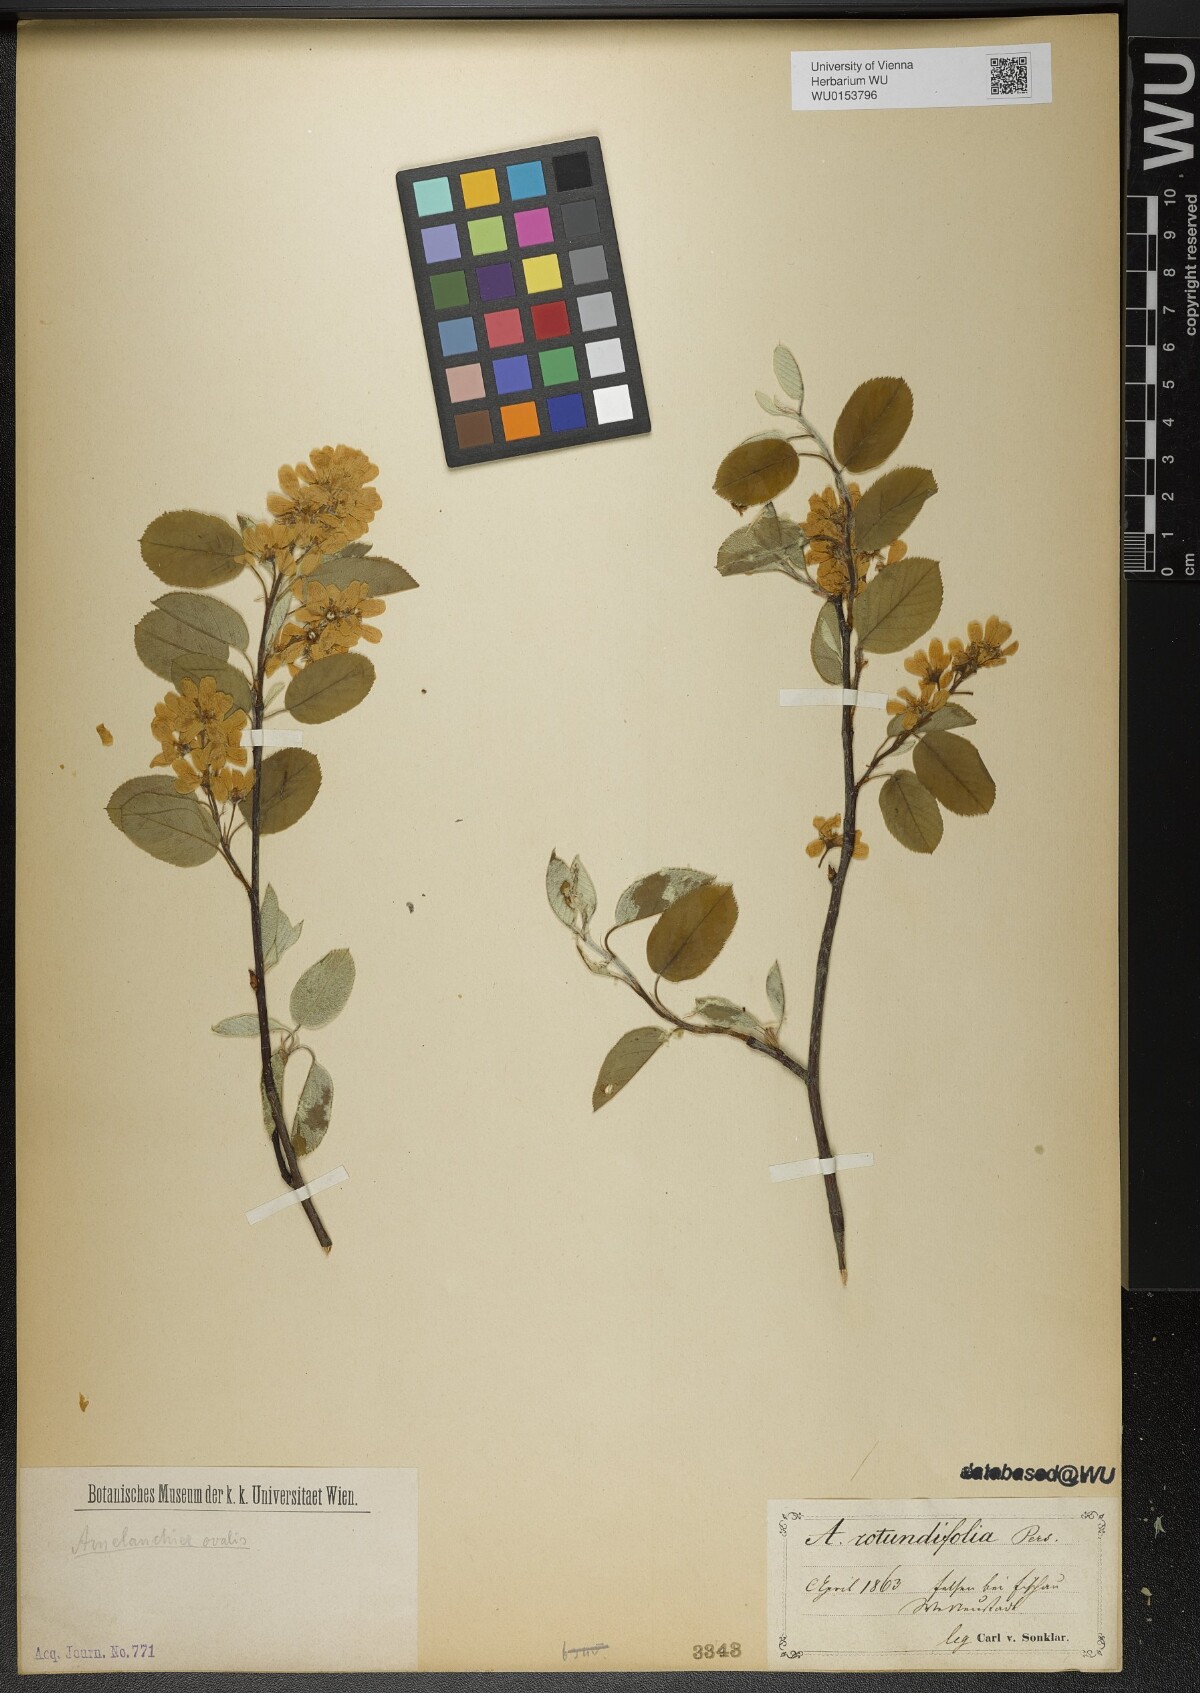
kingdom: Plantae
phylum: Tracheophyta
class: Magnoliopsida
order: Rosales
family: Rosaceae
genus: Amelanchier
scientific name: Amelanchier ovalis
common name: Serviceberry
